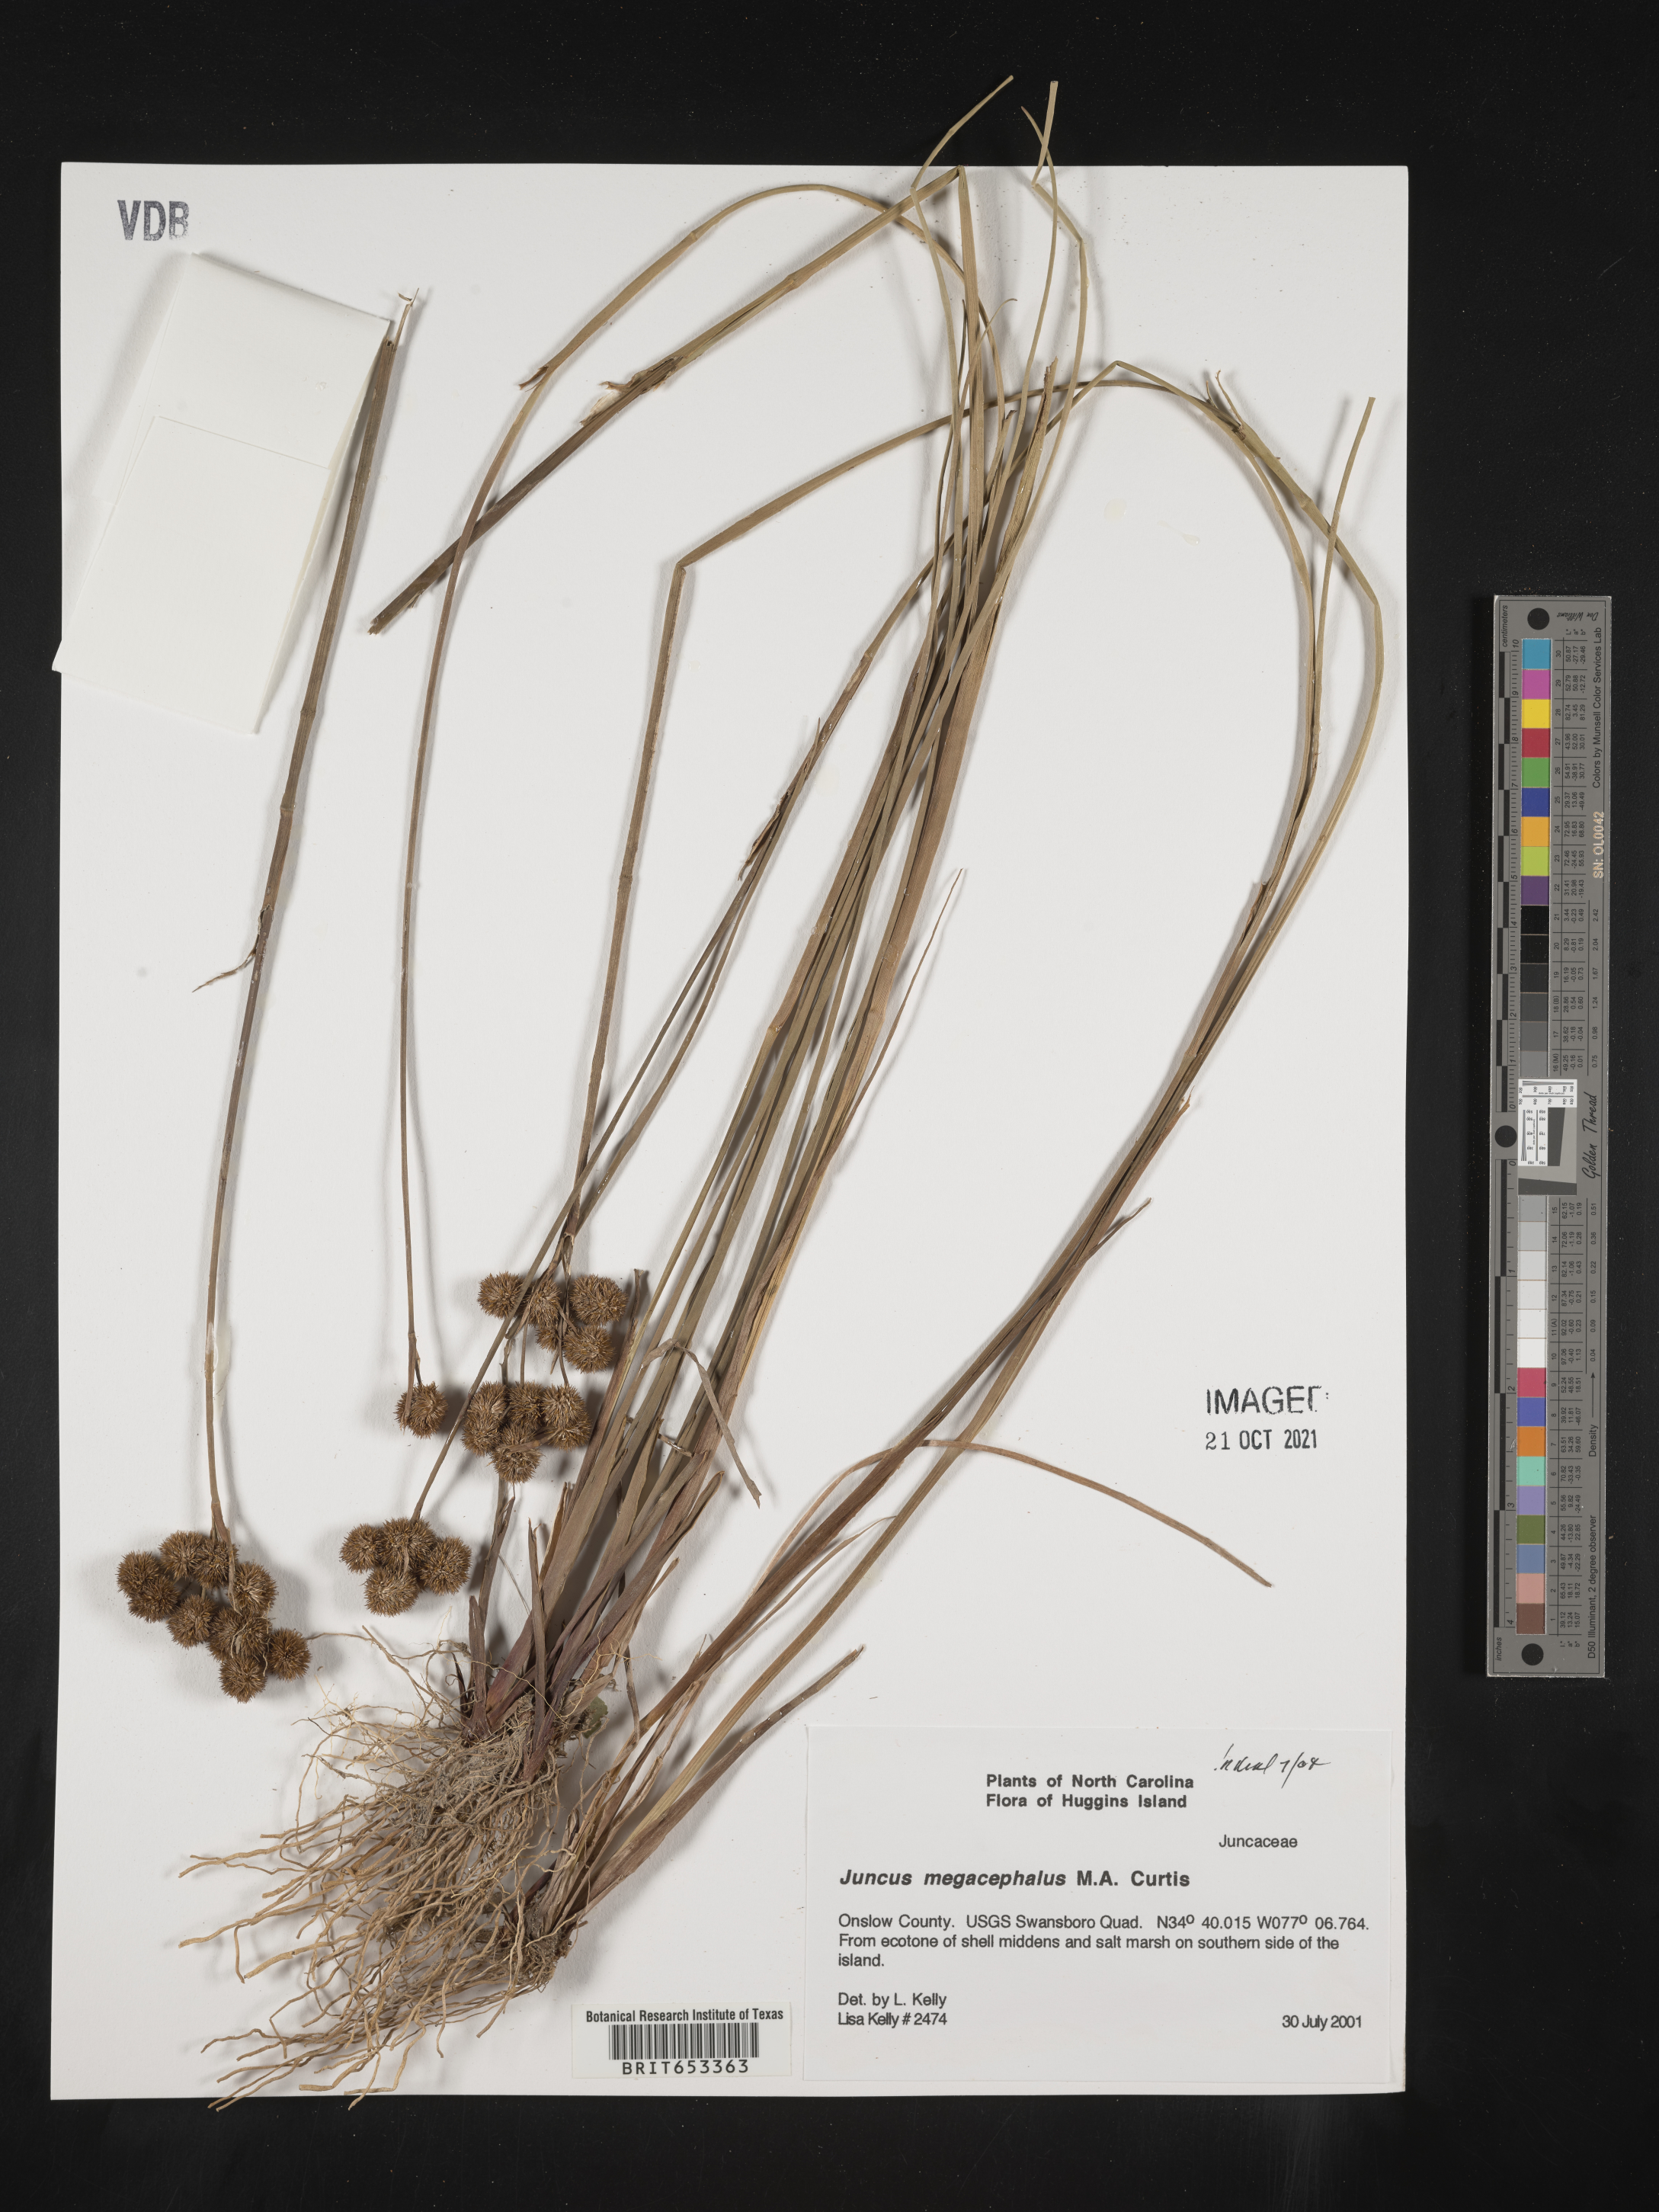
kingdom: Plantae
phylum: Tracheophyta
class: Liliopsida
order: Poales
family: Juncaceae
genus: Juncus
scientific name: Juncus megacephalus
